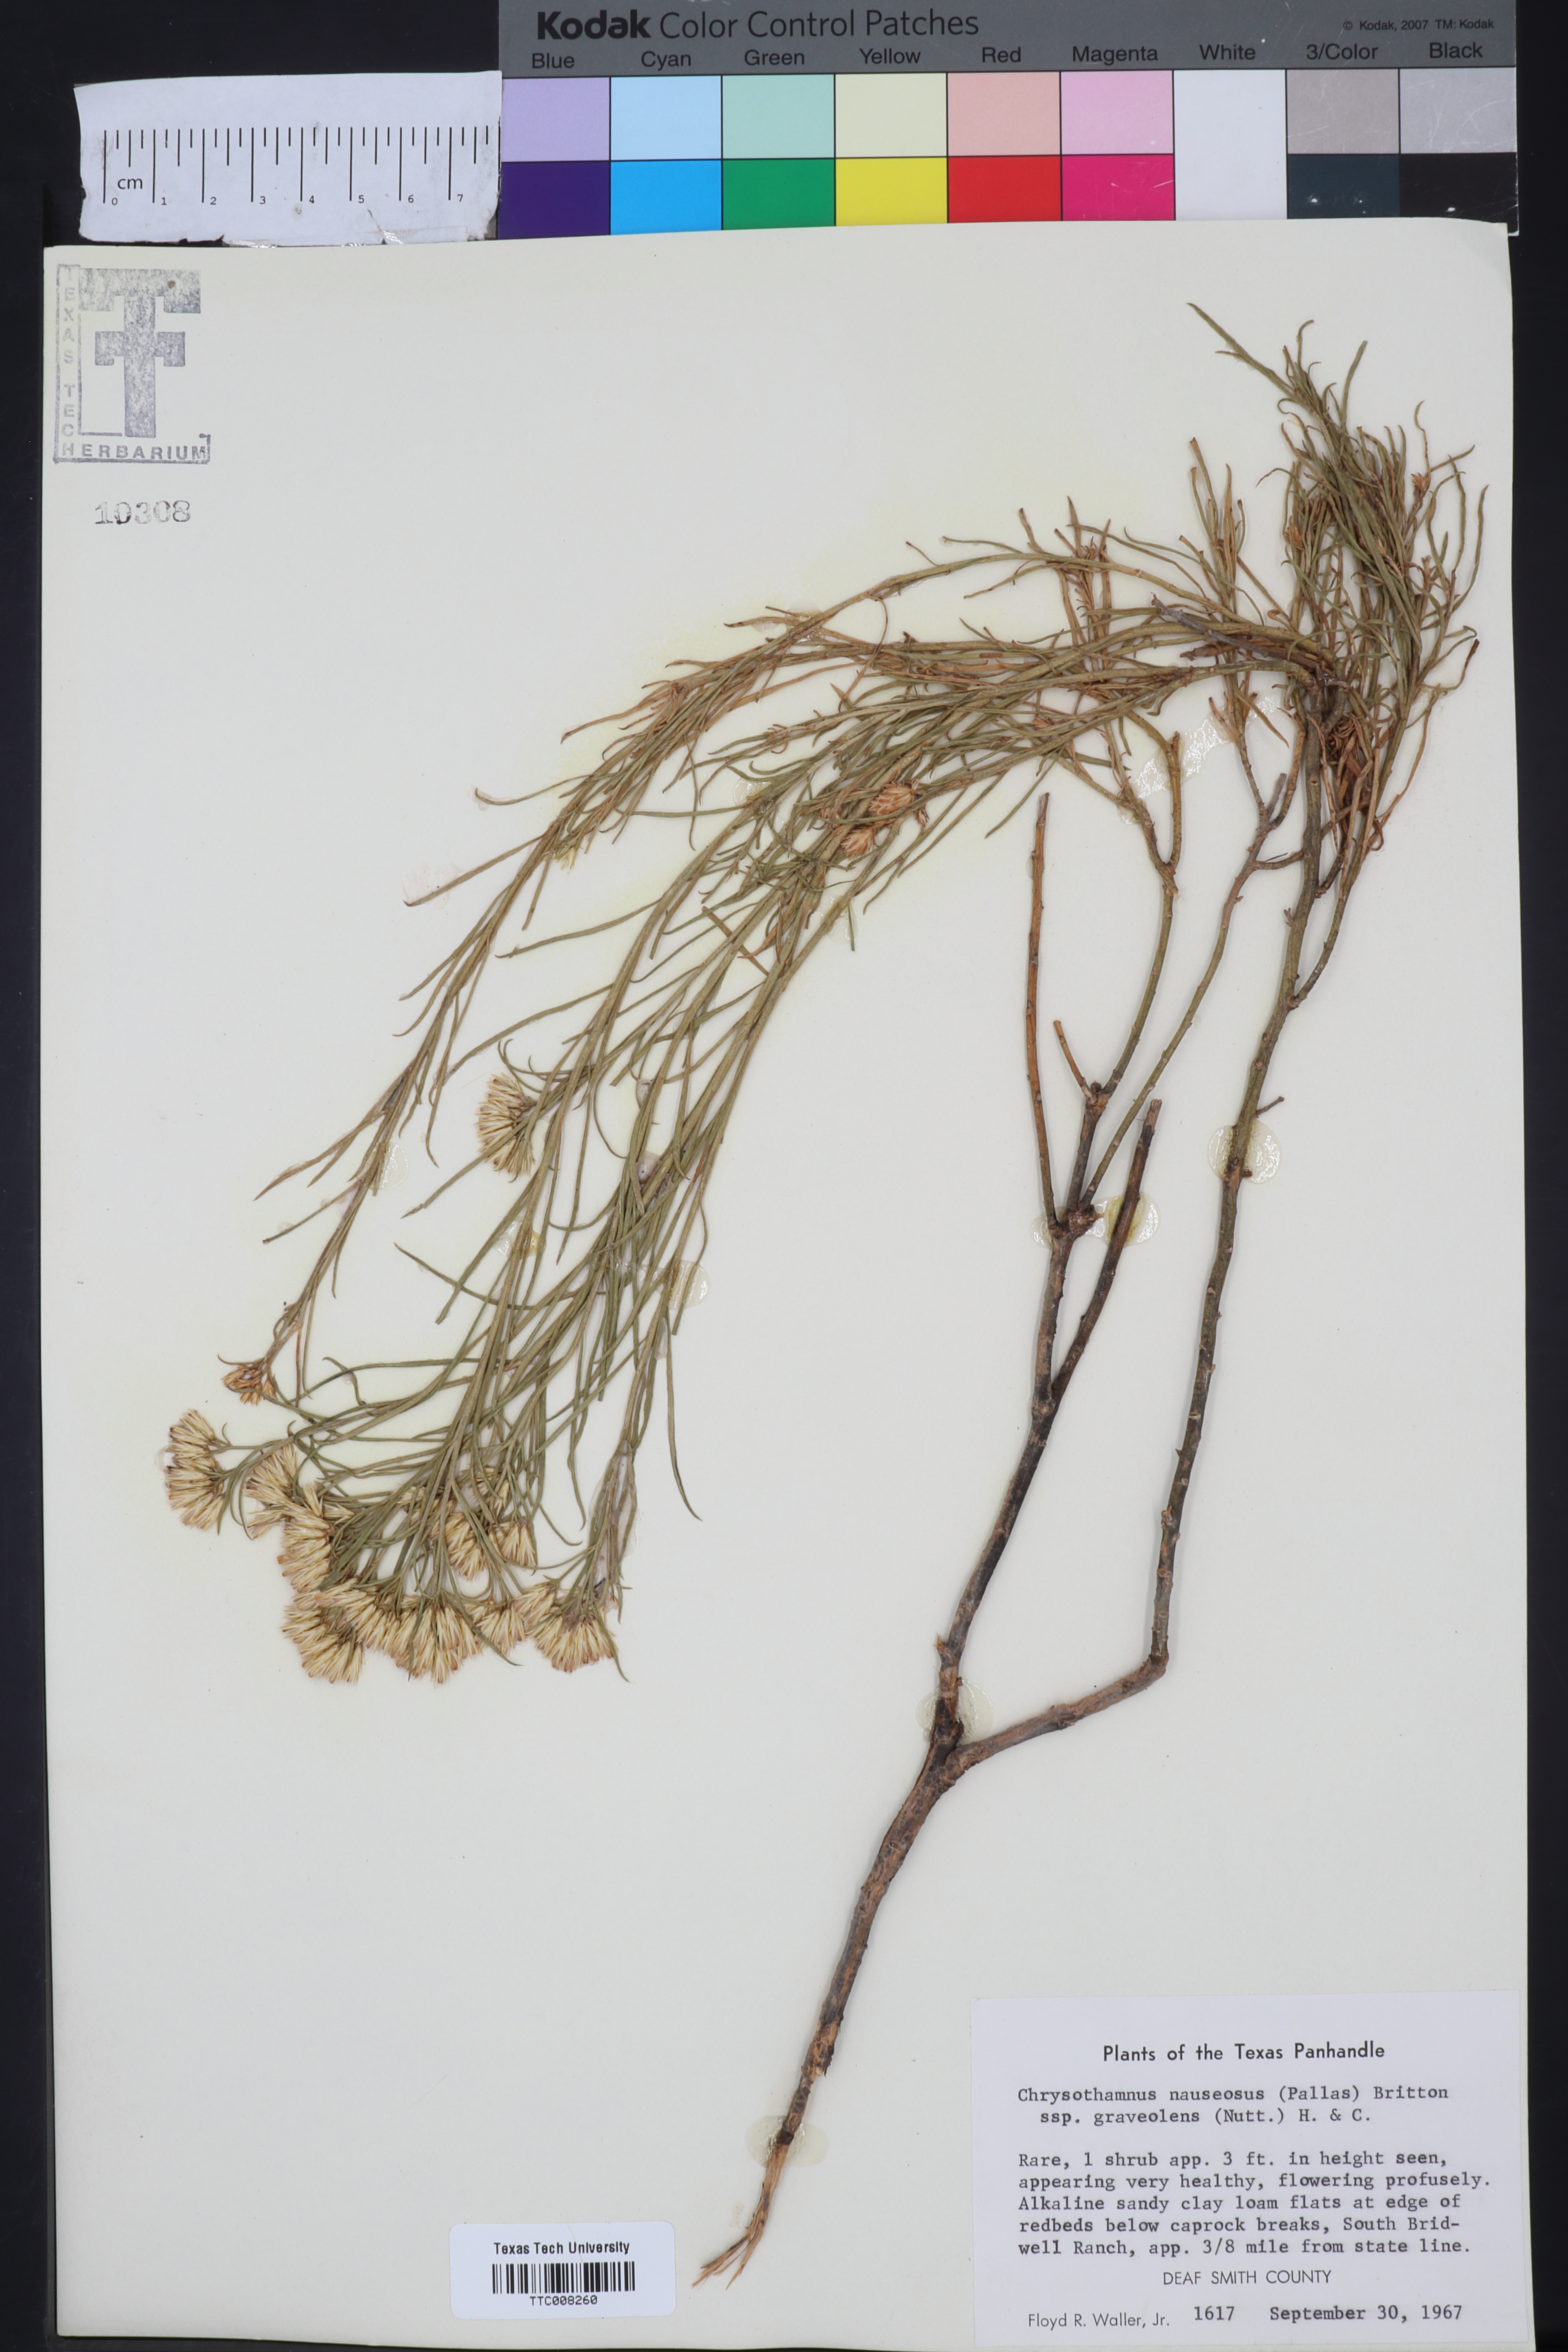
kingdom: Plantae
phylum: Tracheophyta
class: Magnoliopsida
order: Asterales
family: Asteraceae
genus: Ericameria
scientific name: Ericameria nauseosa
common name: Rubber rabbitbrush
